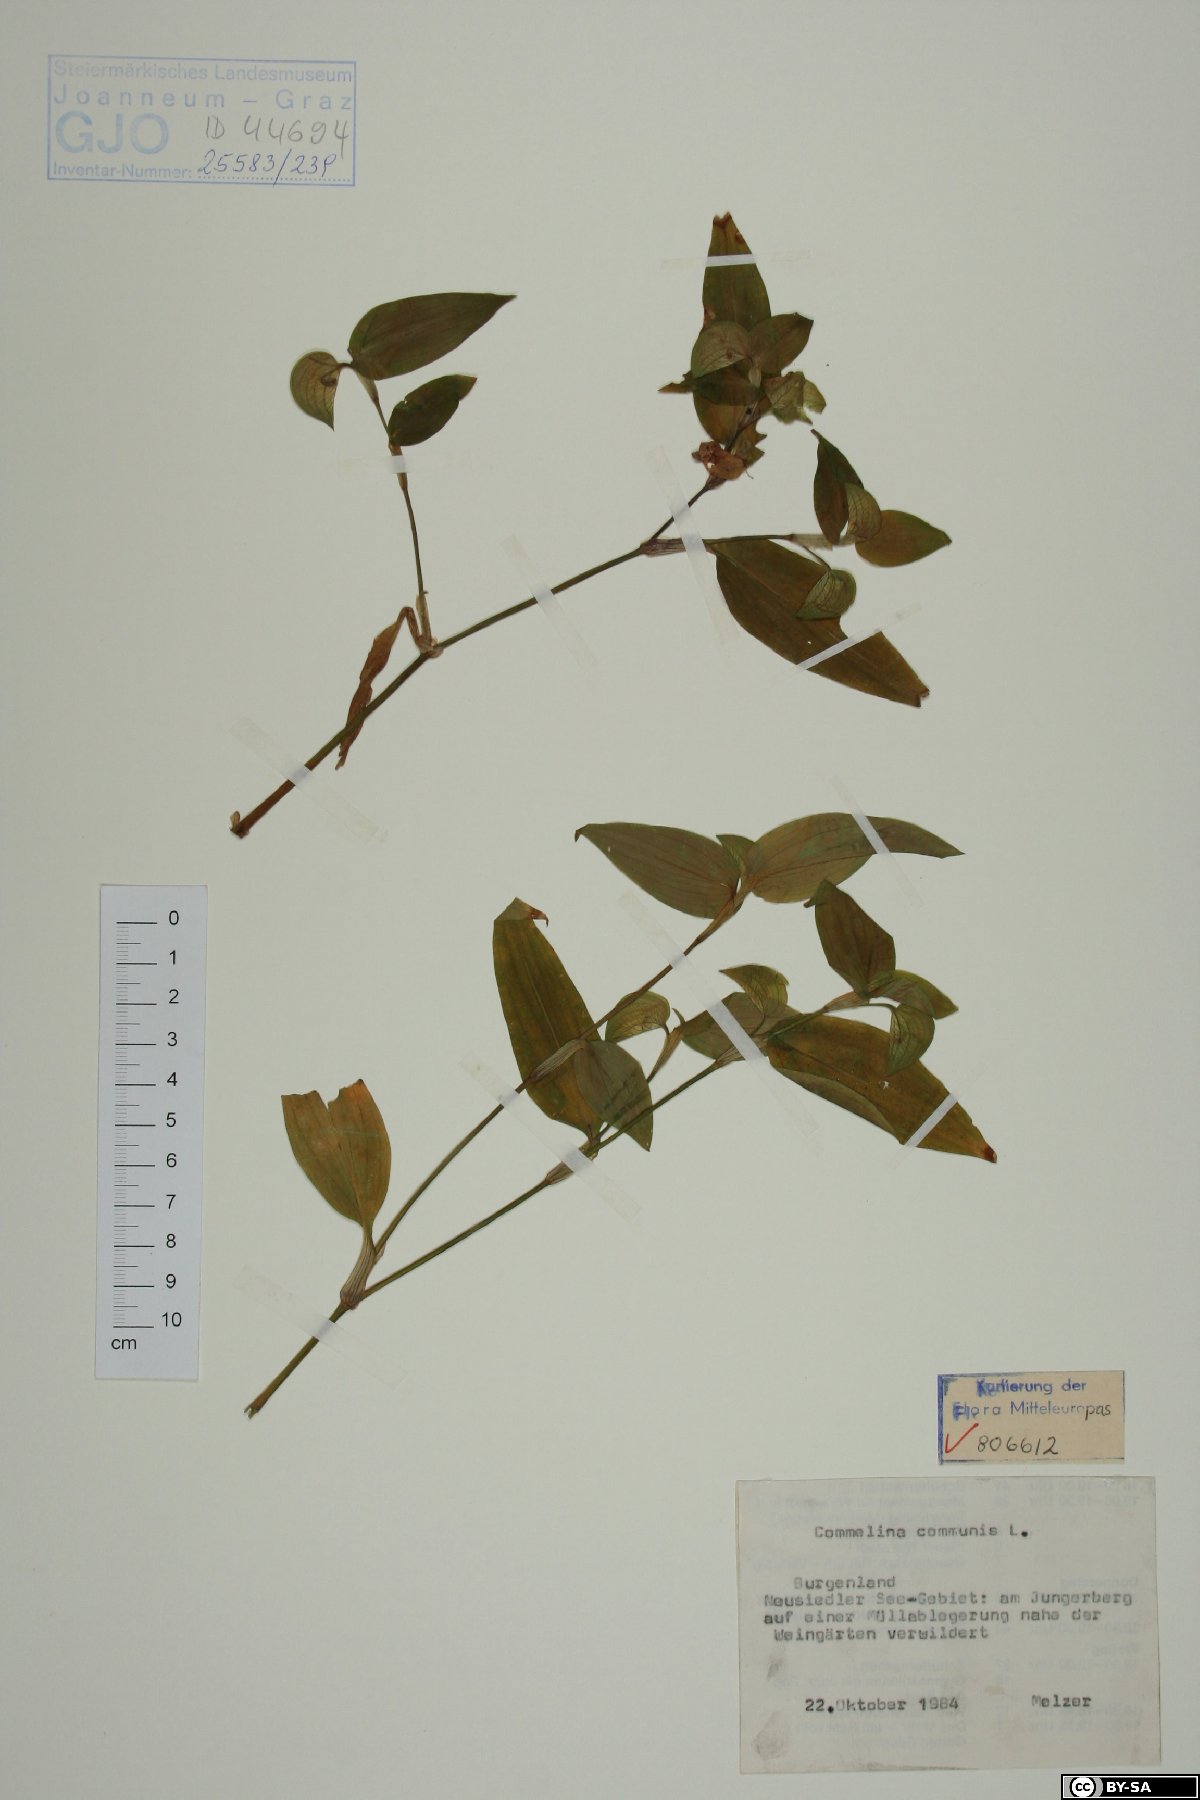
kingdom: Plantae
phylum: Tracheophyta
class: Liliopsida
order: Commelinales
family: Commelinaceae
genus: Commelina
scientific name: Commelina communis
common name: Asiatic dayflower
